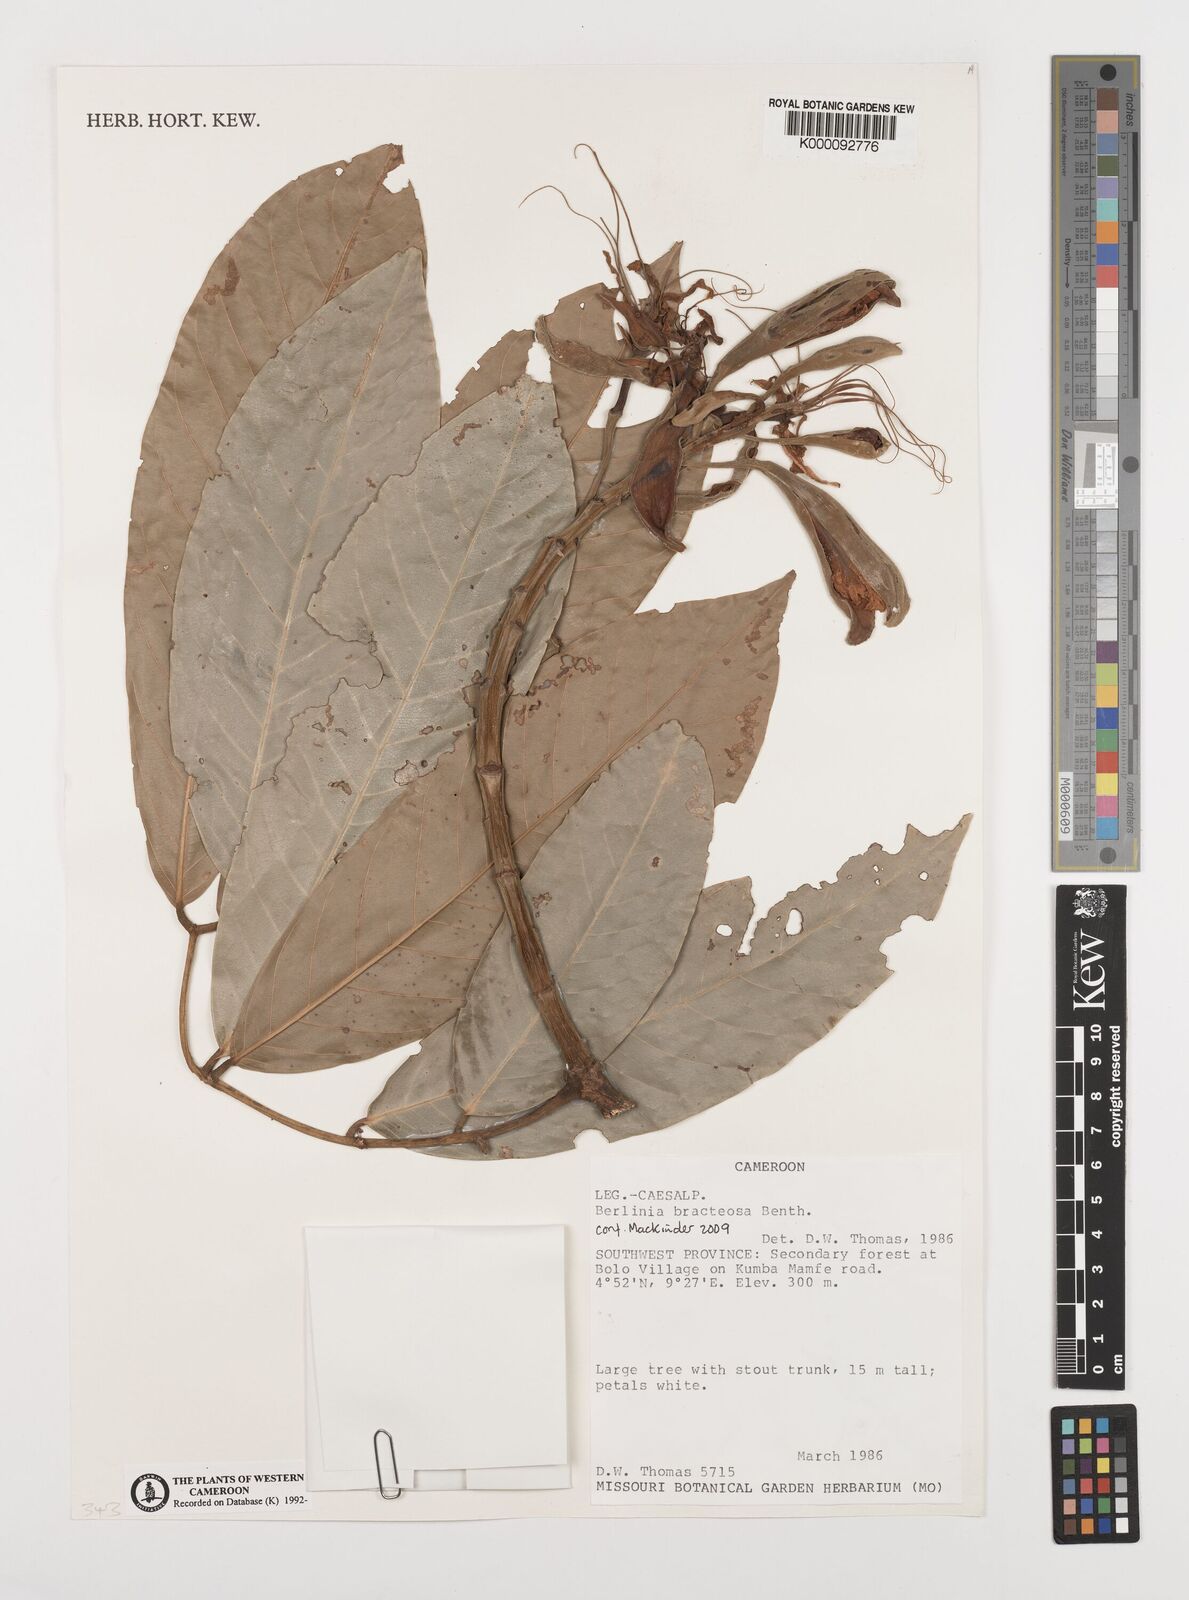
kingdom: Plantae
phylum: Tracheophyta
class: Magnoliopsida
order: Fabales
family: Fabaceae
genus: Berlinia
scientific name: Berlinia bracteosa
